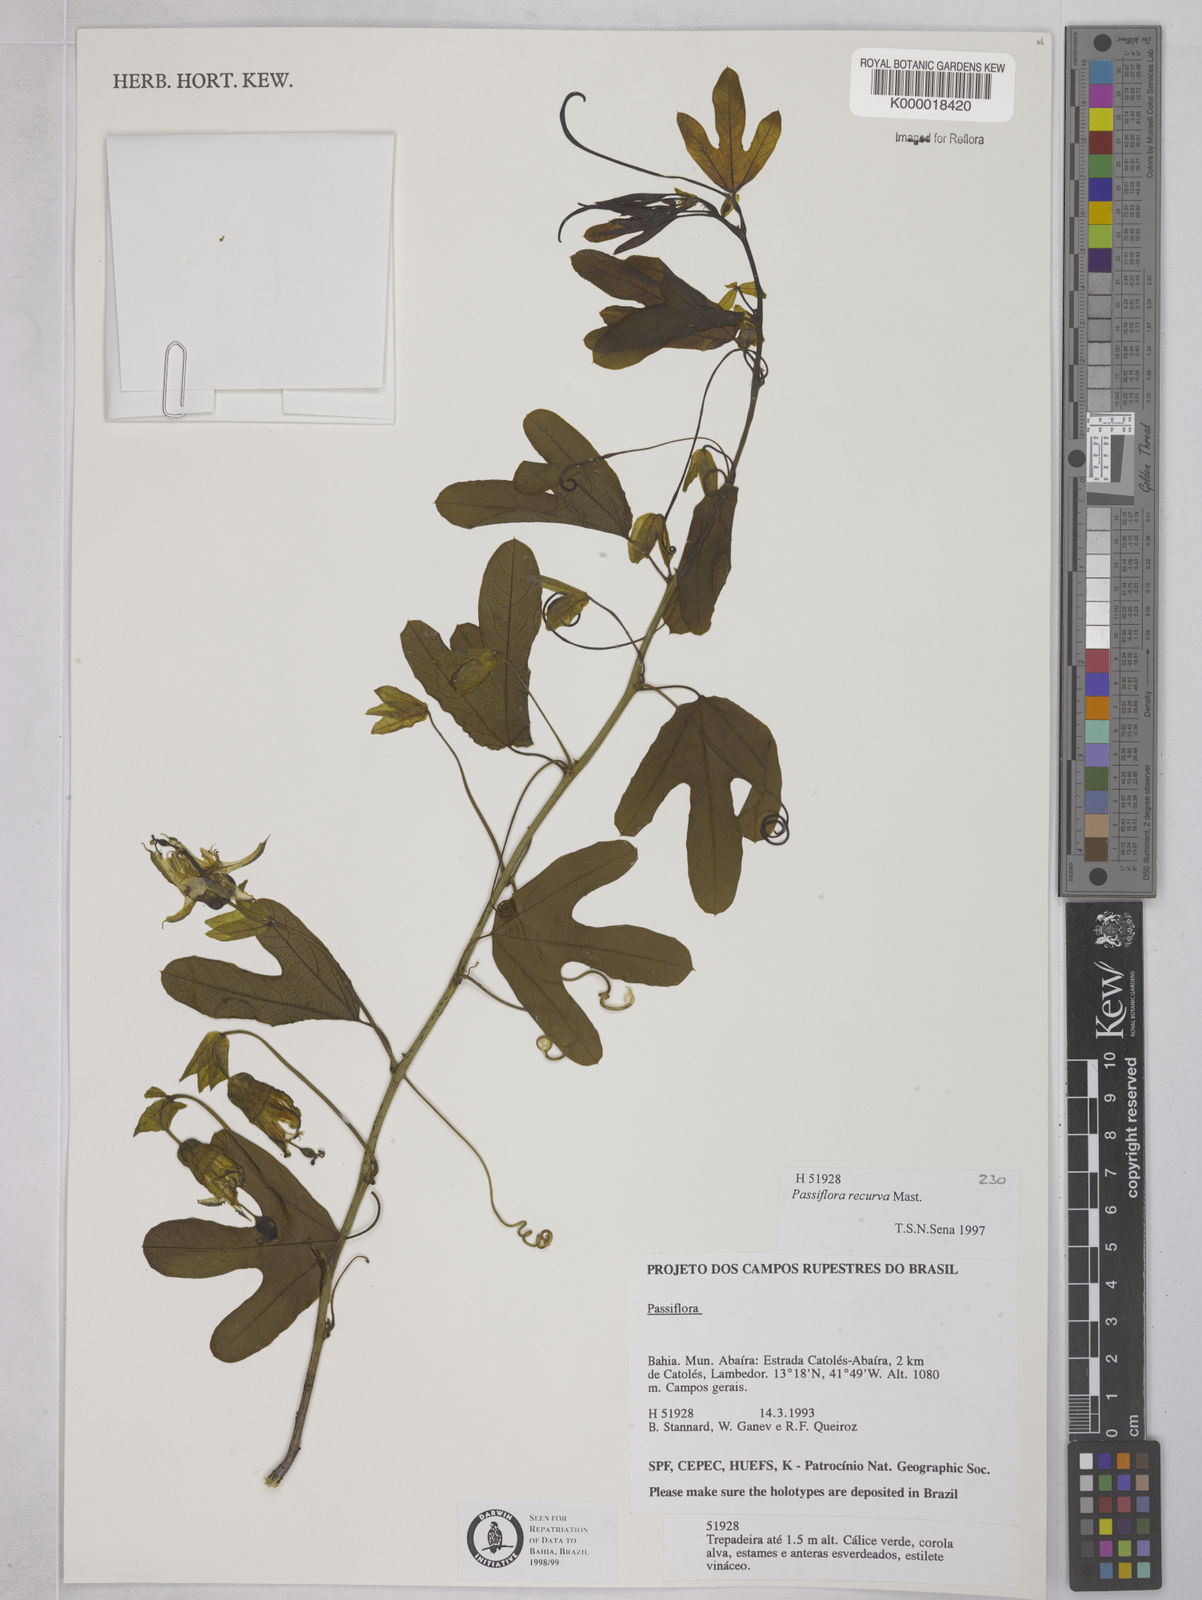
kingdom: Plantae
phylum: Tracheophyta
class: Magnoliopsida
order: Malpighiales
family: Passifloraceae
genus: Passiflora
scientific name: Passiflora recurva
